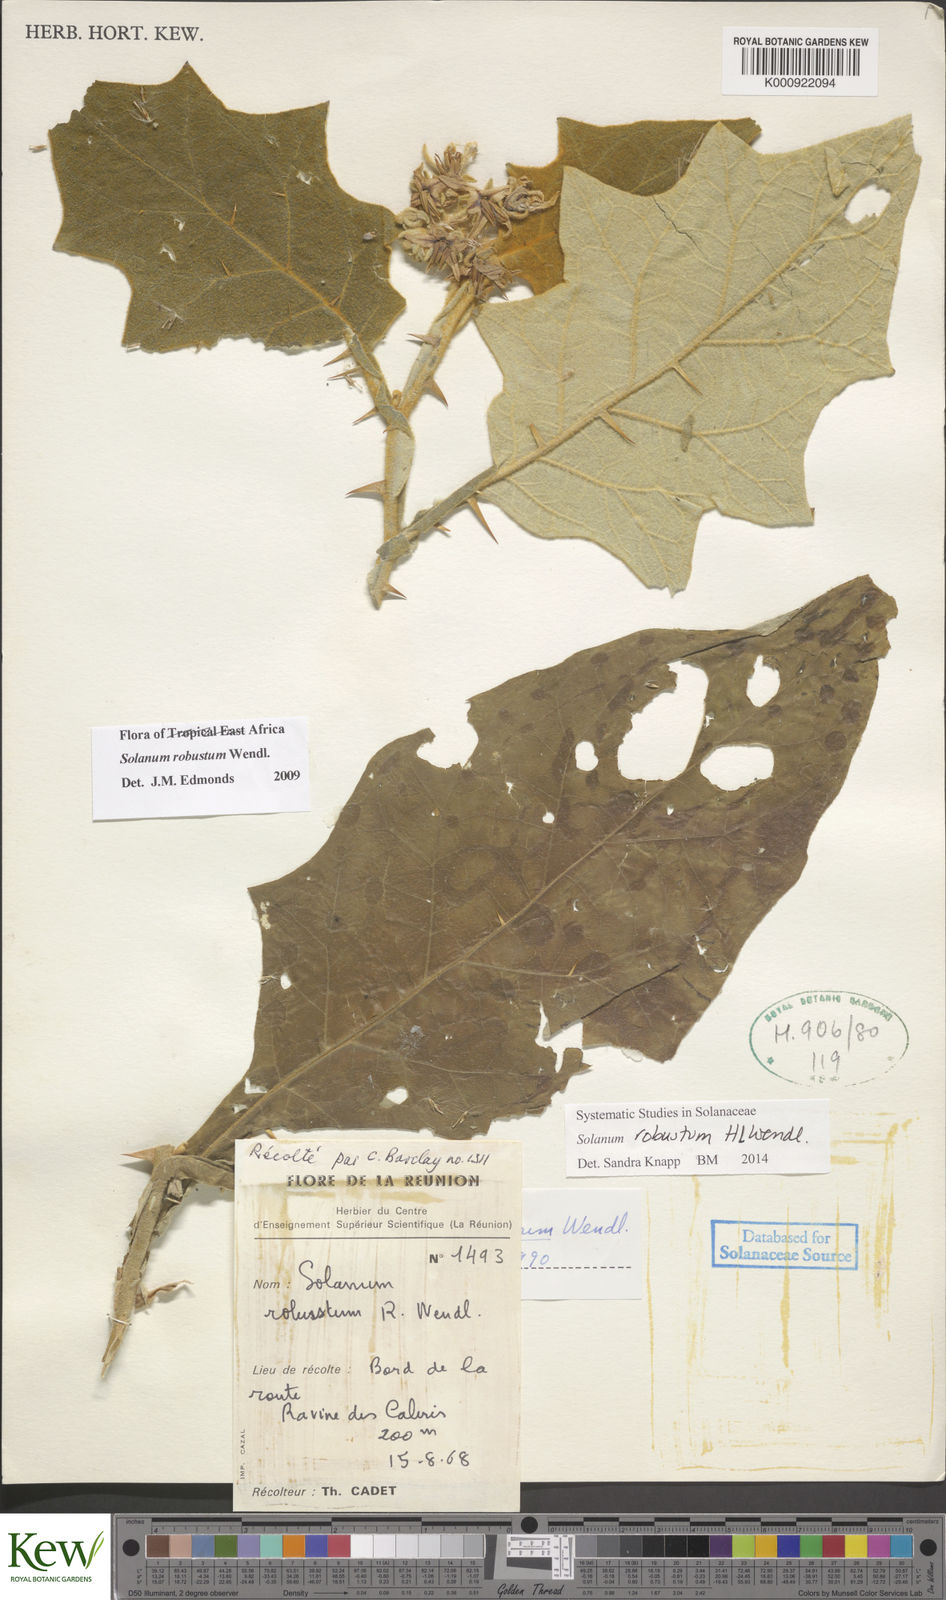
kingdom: Plantae
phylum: Tracheophyta
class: Magnoliopsida
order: Solanales
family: Solanaceae
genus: Solanum
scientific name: Solanum robustum
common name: Shrubby nightshade
